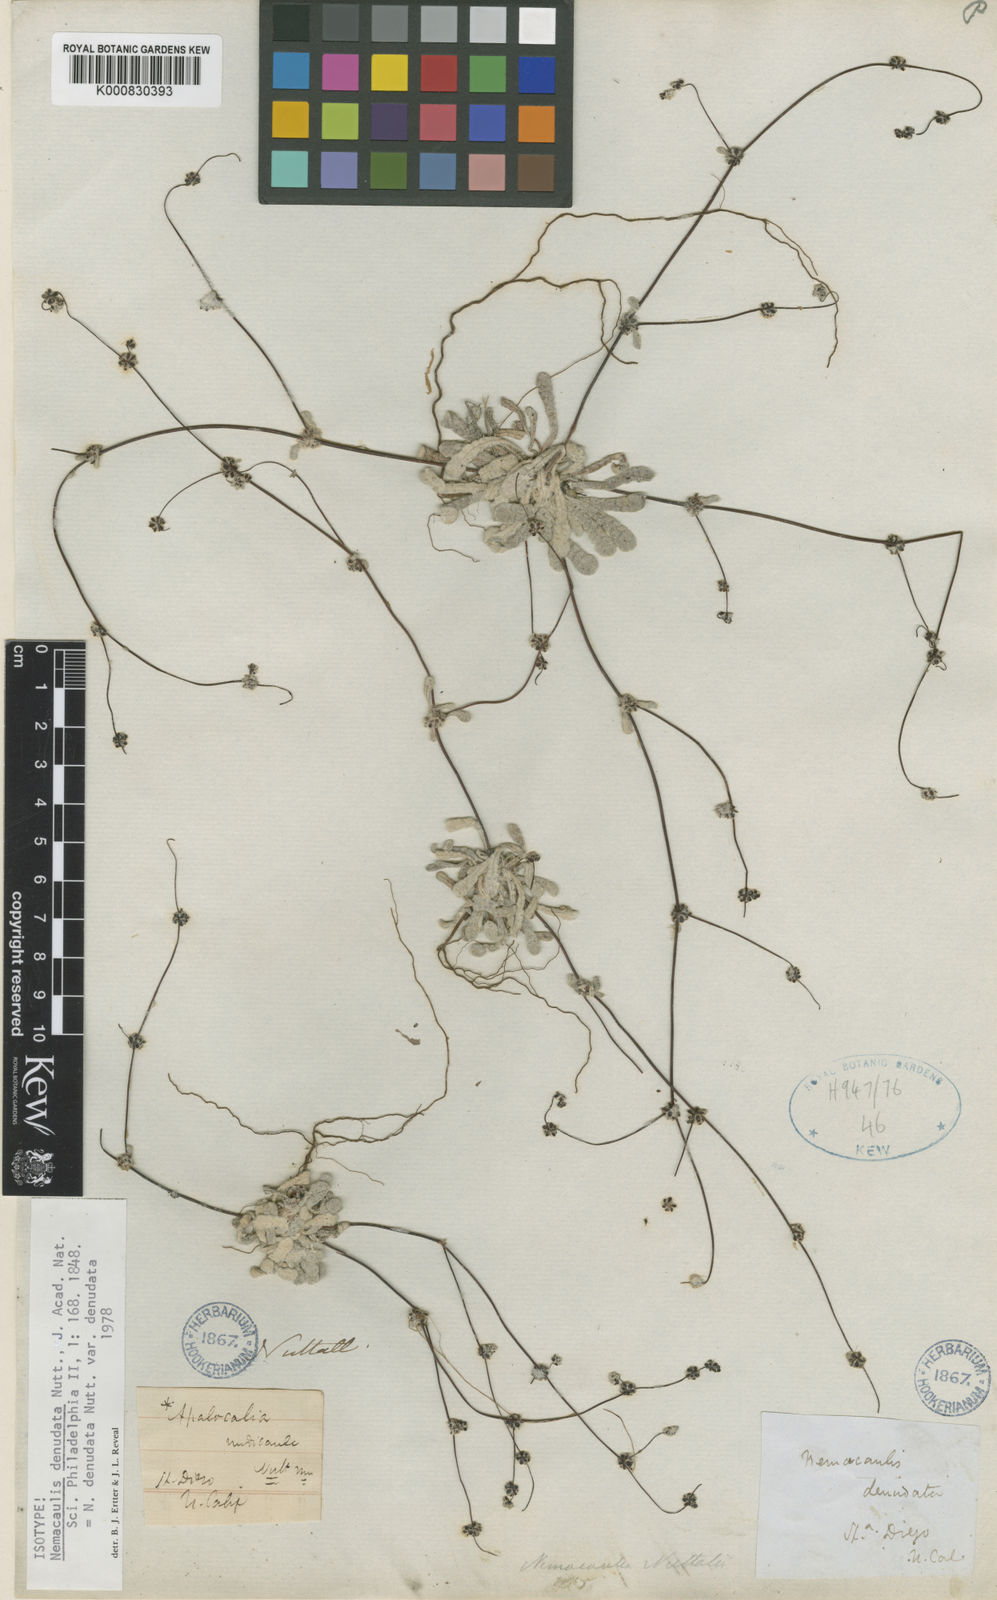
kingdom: Plantae
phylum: Tracheophyta
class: Magnoliopsida
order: Caryophyllales
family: Polygonaceae
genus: Nemacaulis
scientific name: Nemacaulis denudata
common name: Woolly-heads
